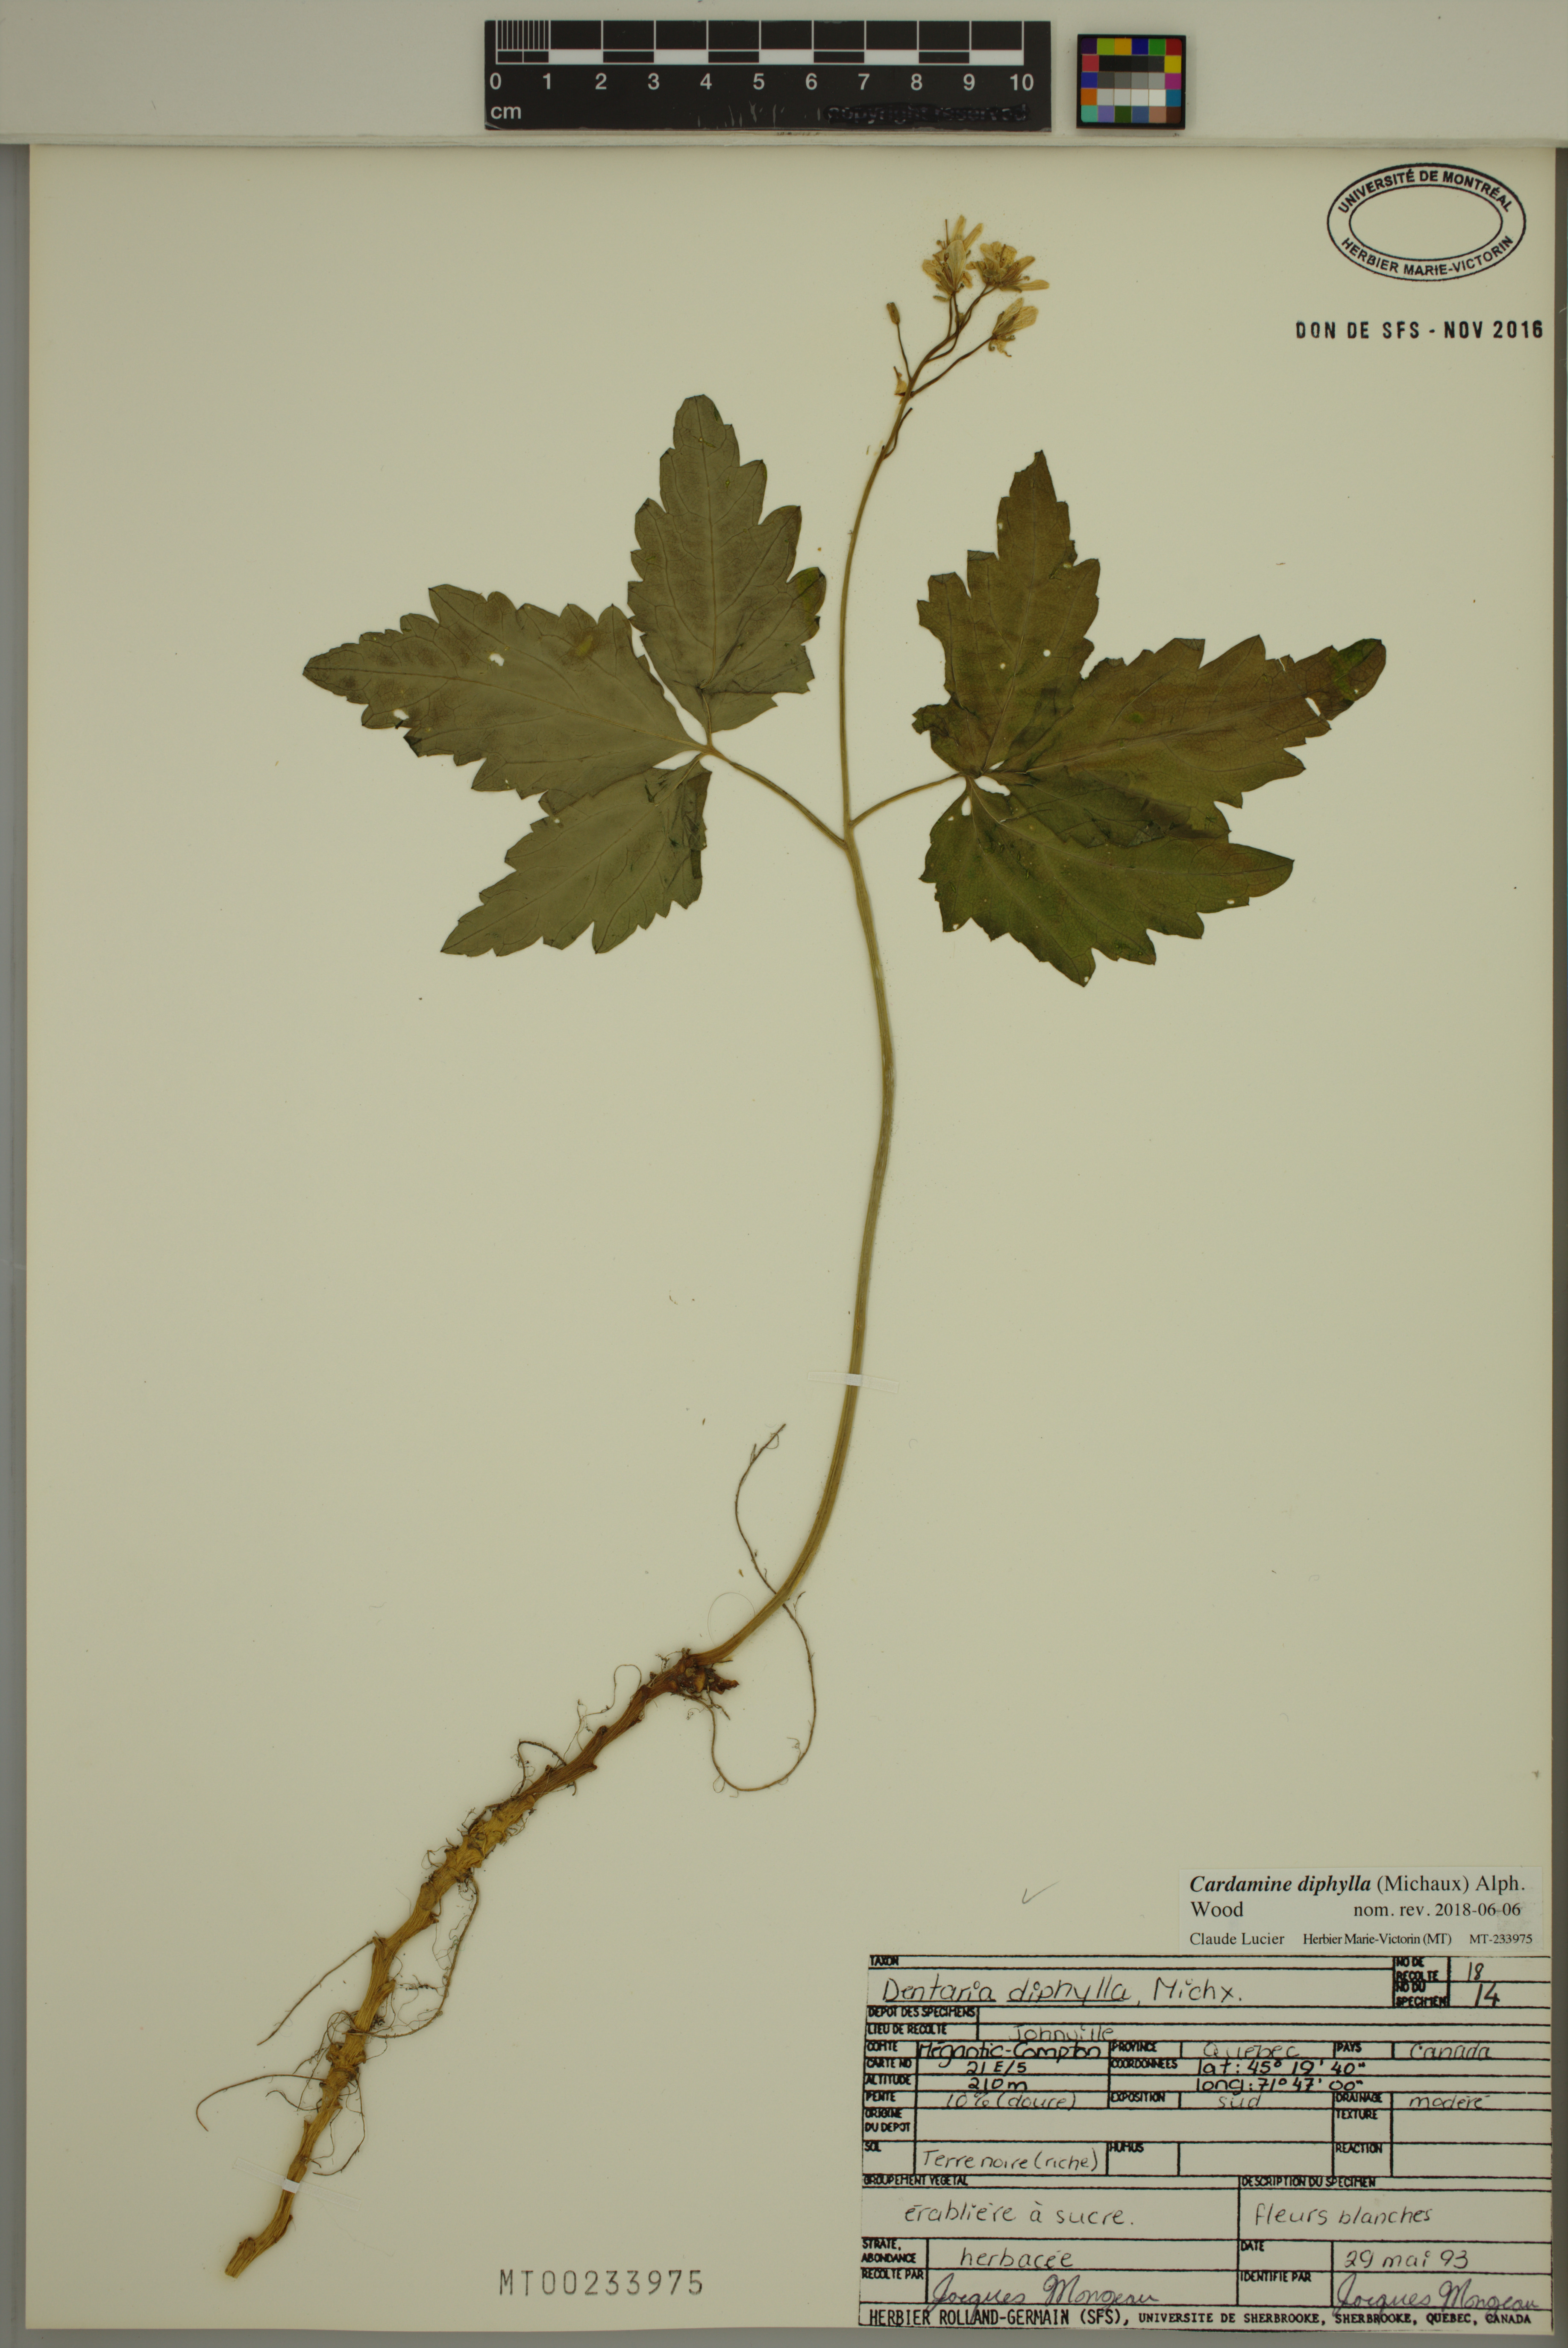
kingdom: Plantae
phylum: Tracheophyta
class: Magnoliopsida
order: Brassicales
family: Brassicaceae
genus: Cardamine
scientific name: Cardamine diphylla
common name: Broad-leaved toothwort
